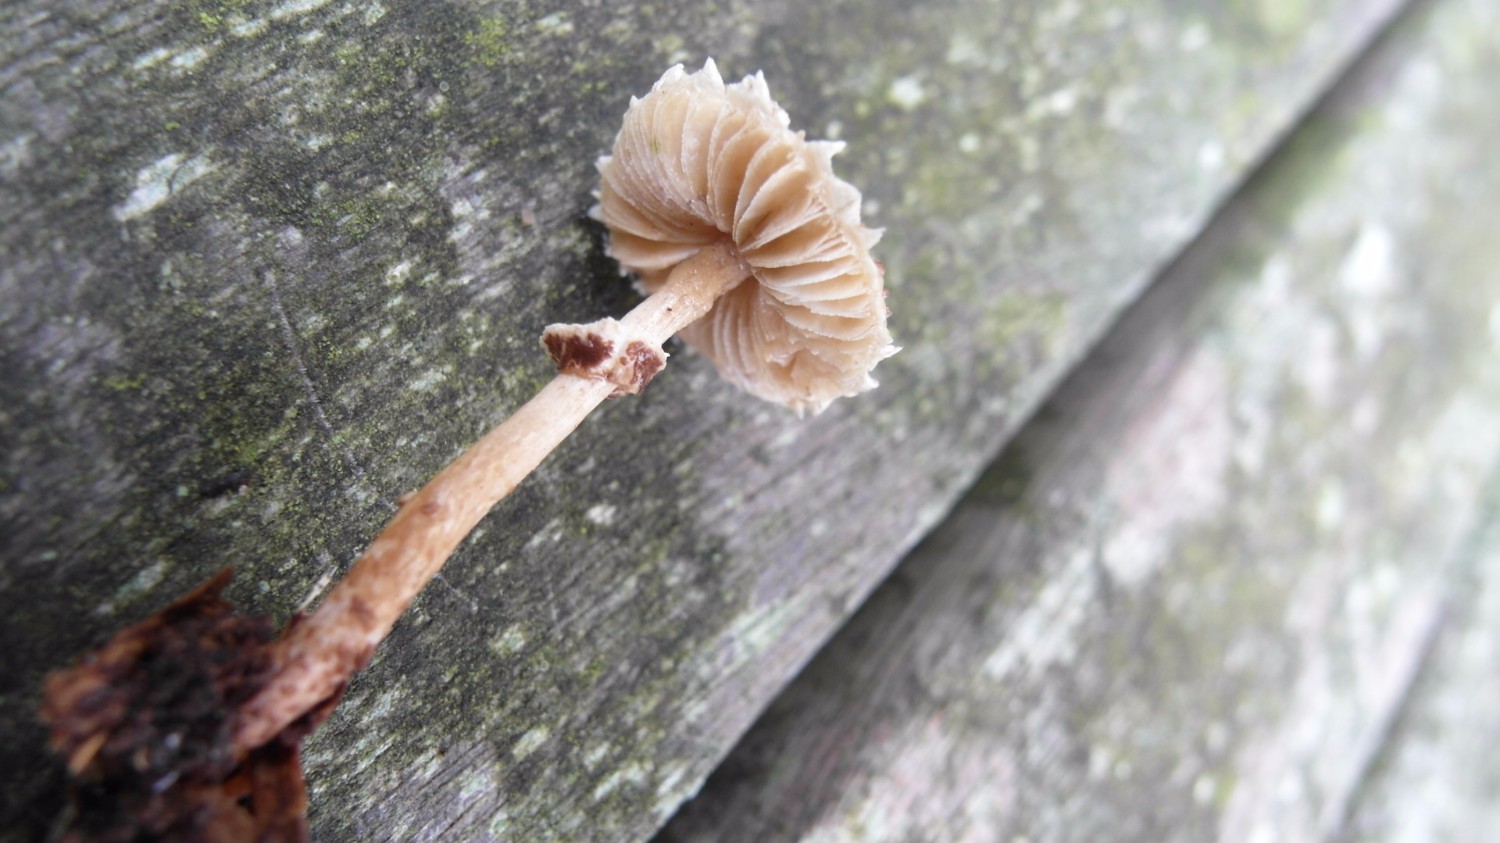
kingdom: Fungi
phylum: Basidiomycota
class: Agaricomycetes
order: Agaricales
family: Agaricaceae
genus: Lepiota
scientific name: Lepiota felina
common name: sortskællet parasolhat
